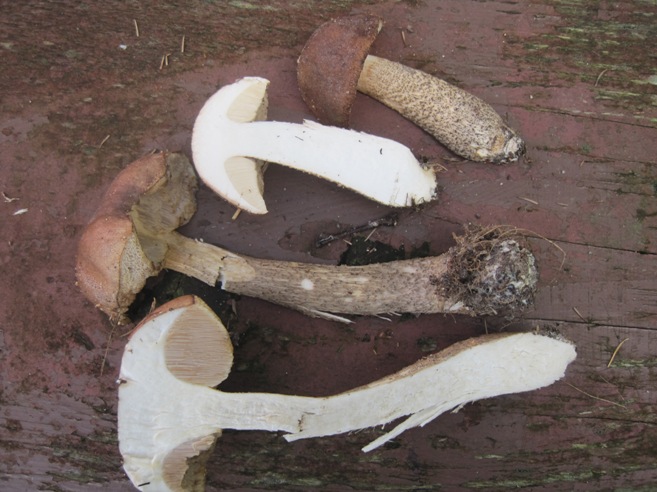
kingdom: Fungi
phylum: Basidiomycota
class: Agaricomycetes
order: Boletales
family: Boletaceae
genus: Leccinum
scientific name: Leccinum scabrum
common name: brun skælrørhat
